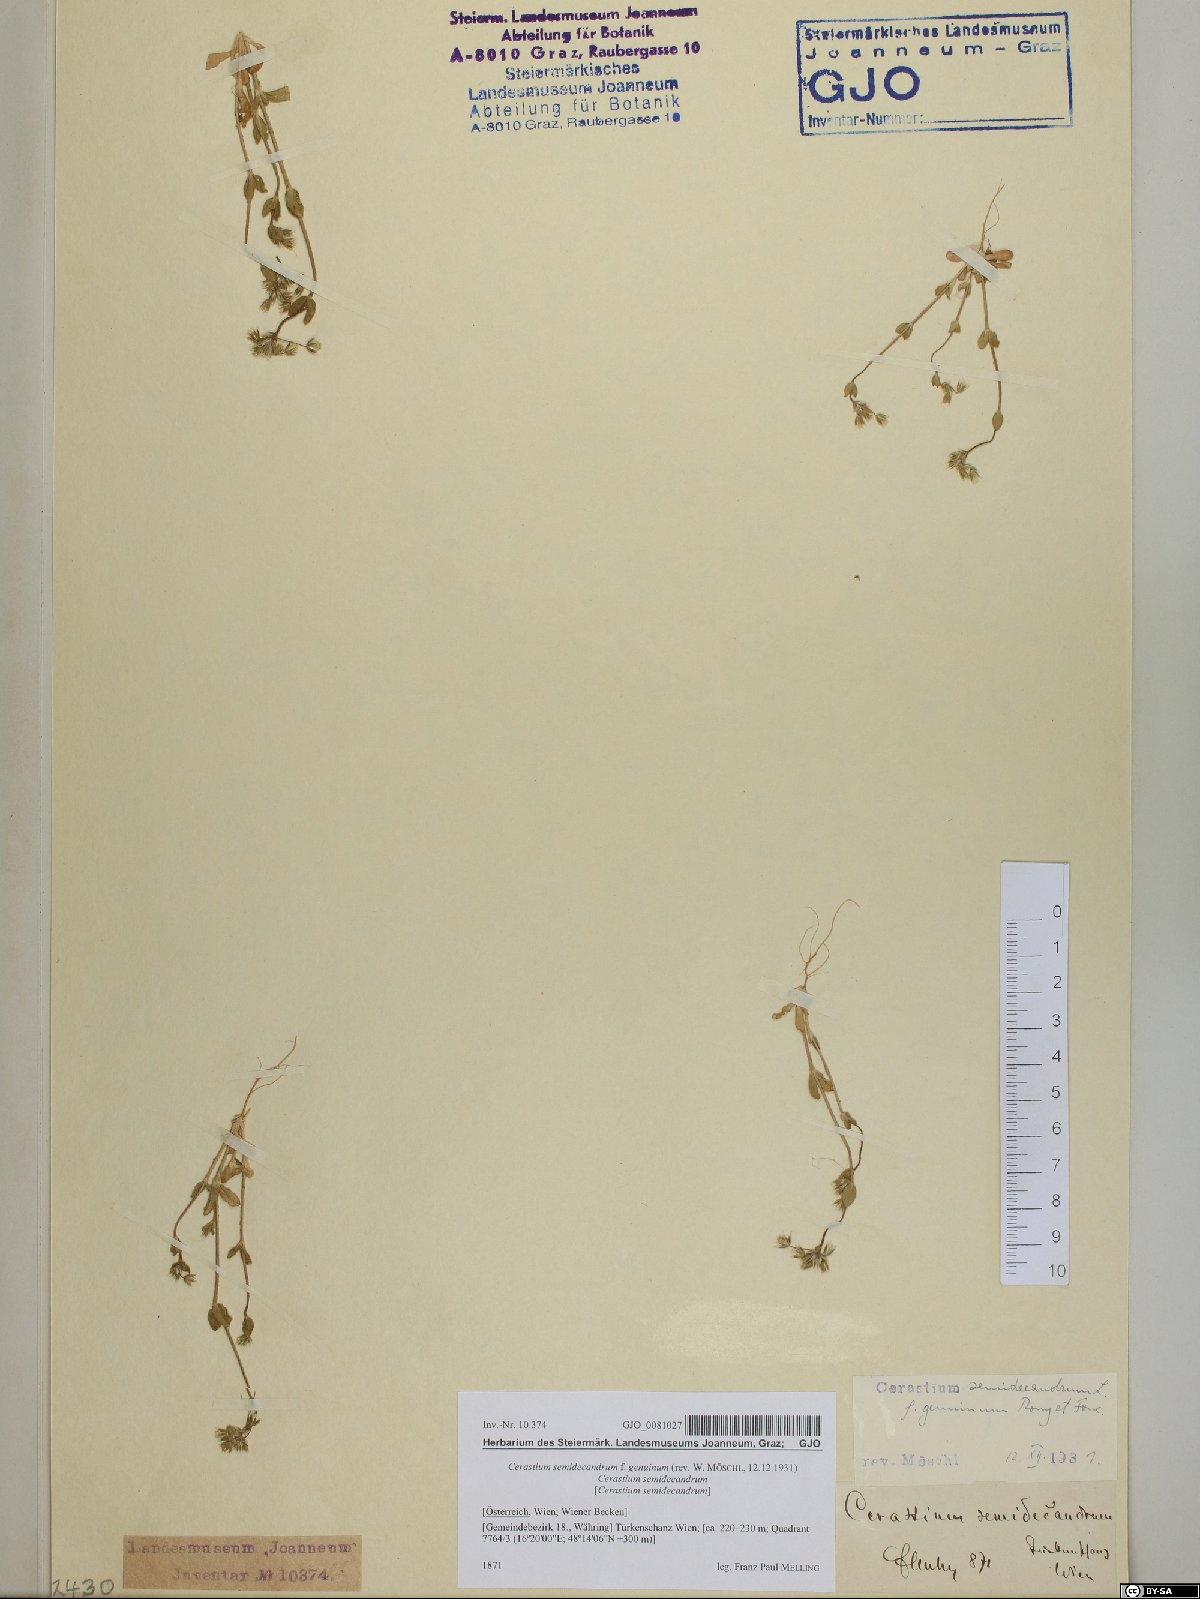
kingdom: Plantae
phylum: Tracheophyta
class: Magnoliopsida
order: Caryophyllales
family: Caryophyllaceae
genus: Cerastium
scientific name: Cerastium semidecandrum
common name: Little mouse-ear
